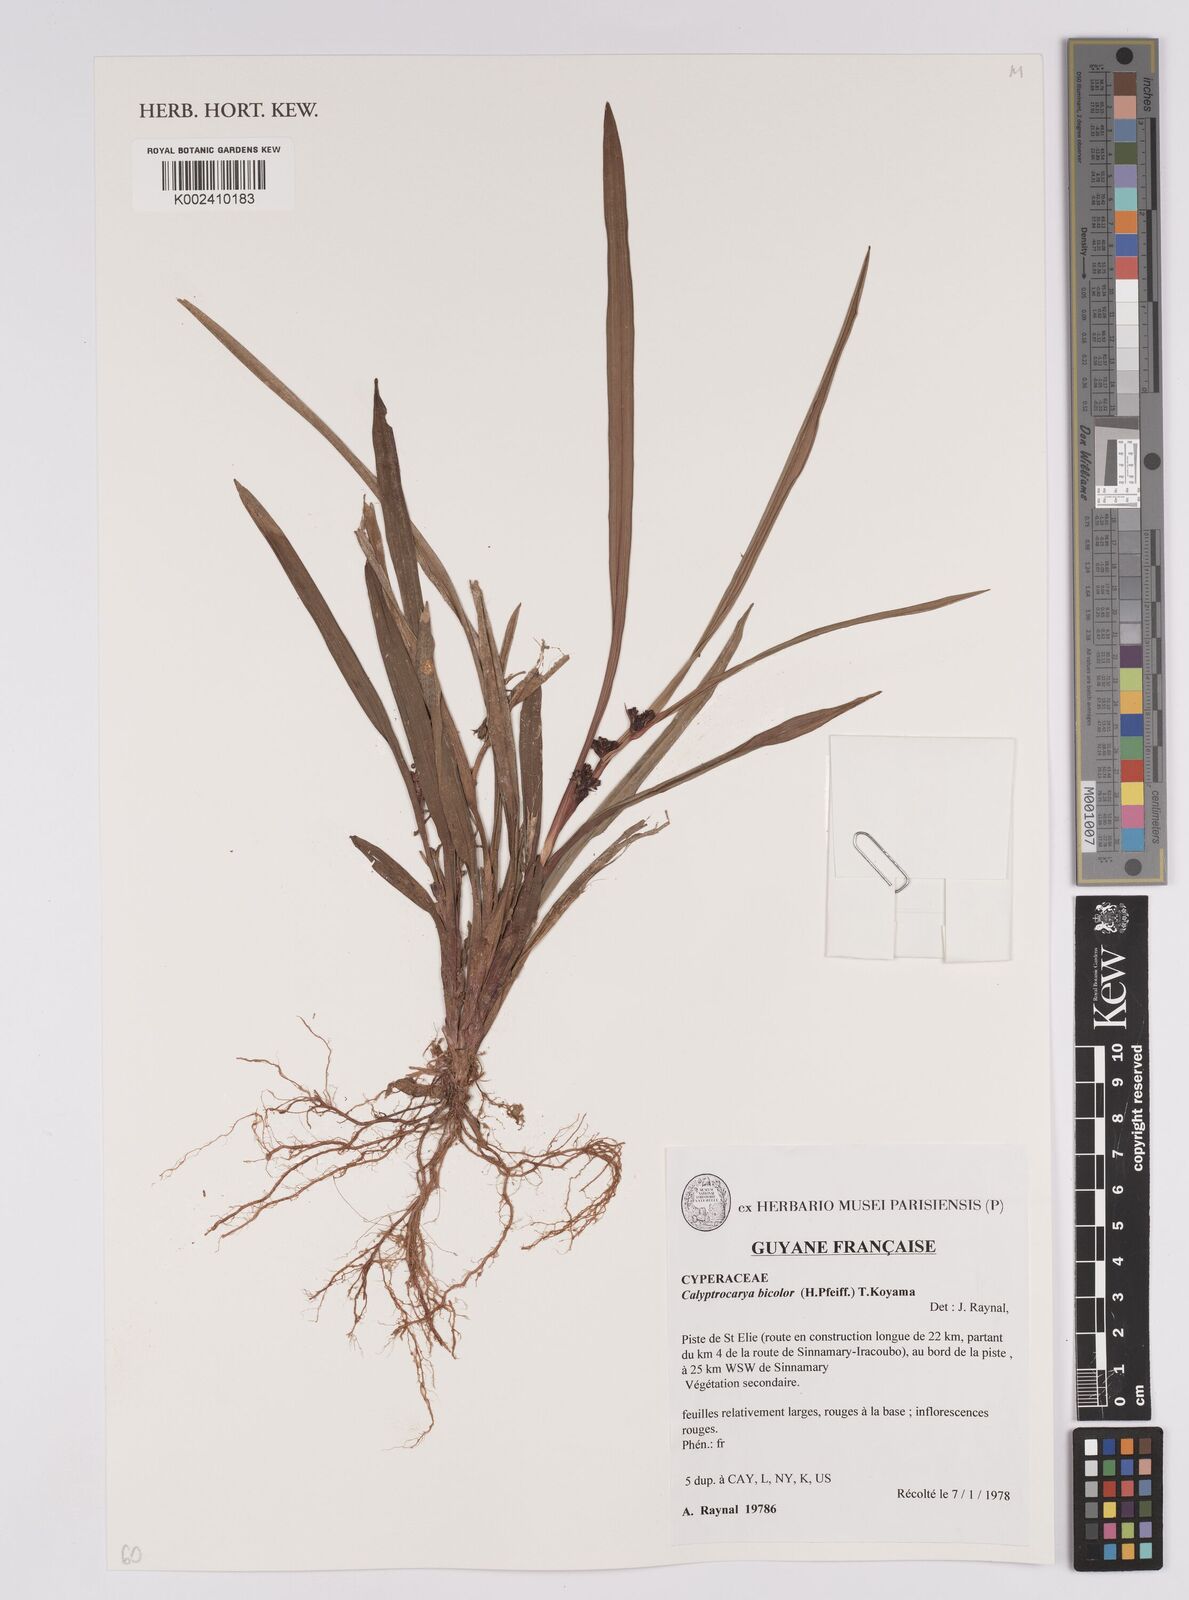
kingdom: Plantae
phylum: Tracheophyta
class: Liliopsida
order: Poales
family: Cyperaceae
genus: Calyptrocarya
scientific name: Calyptrocarya bicolor
